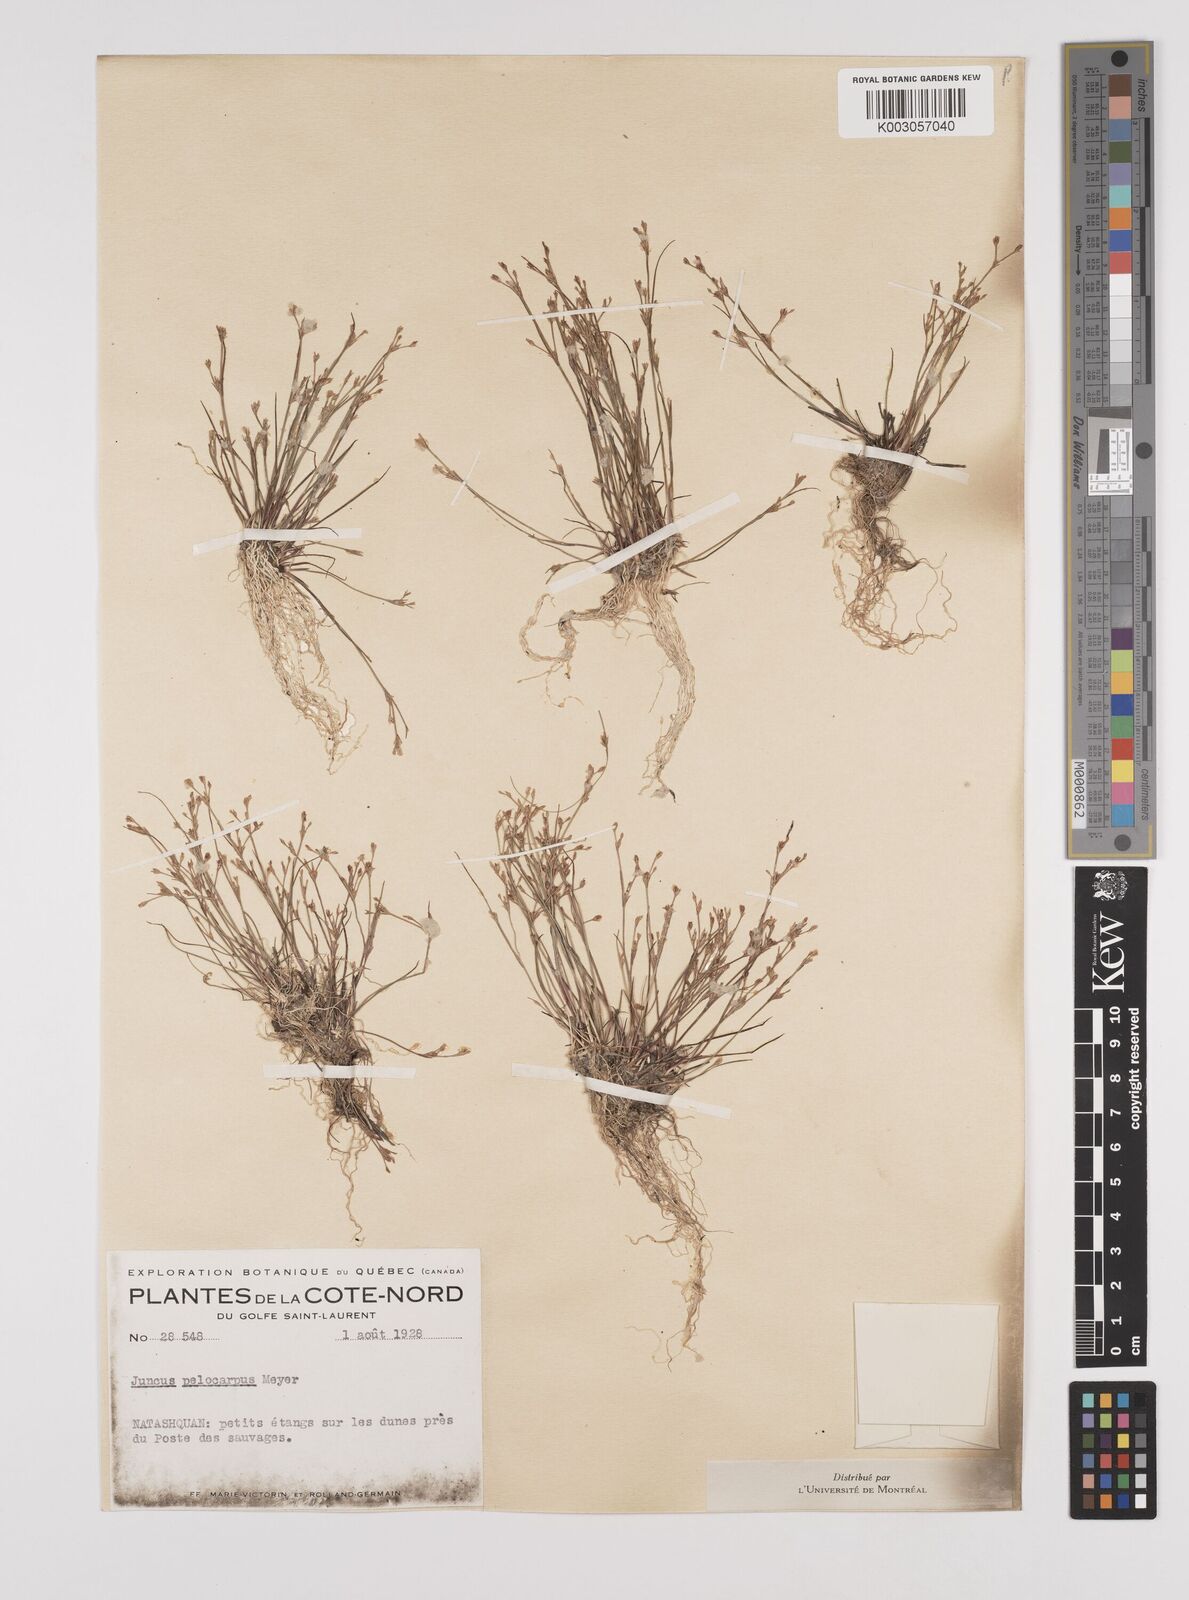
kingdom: Plantae
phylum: Tracheophyta
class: Liliopsida
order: Poales
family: Juncaceae
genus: Juncus
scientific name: Juncus pelocarpus
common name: Brown-fruited rush
